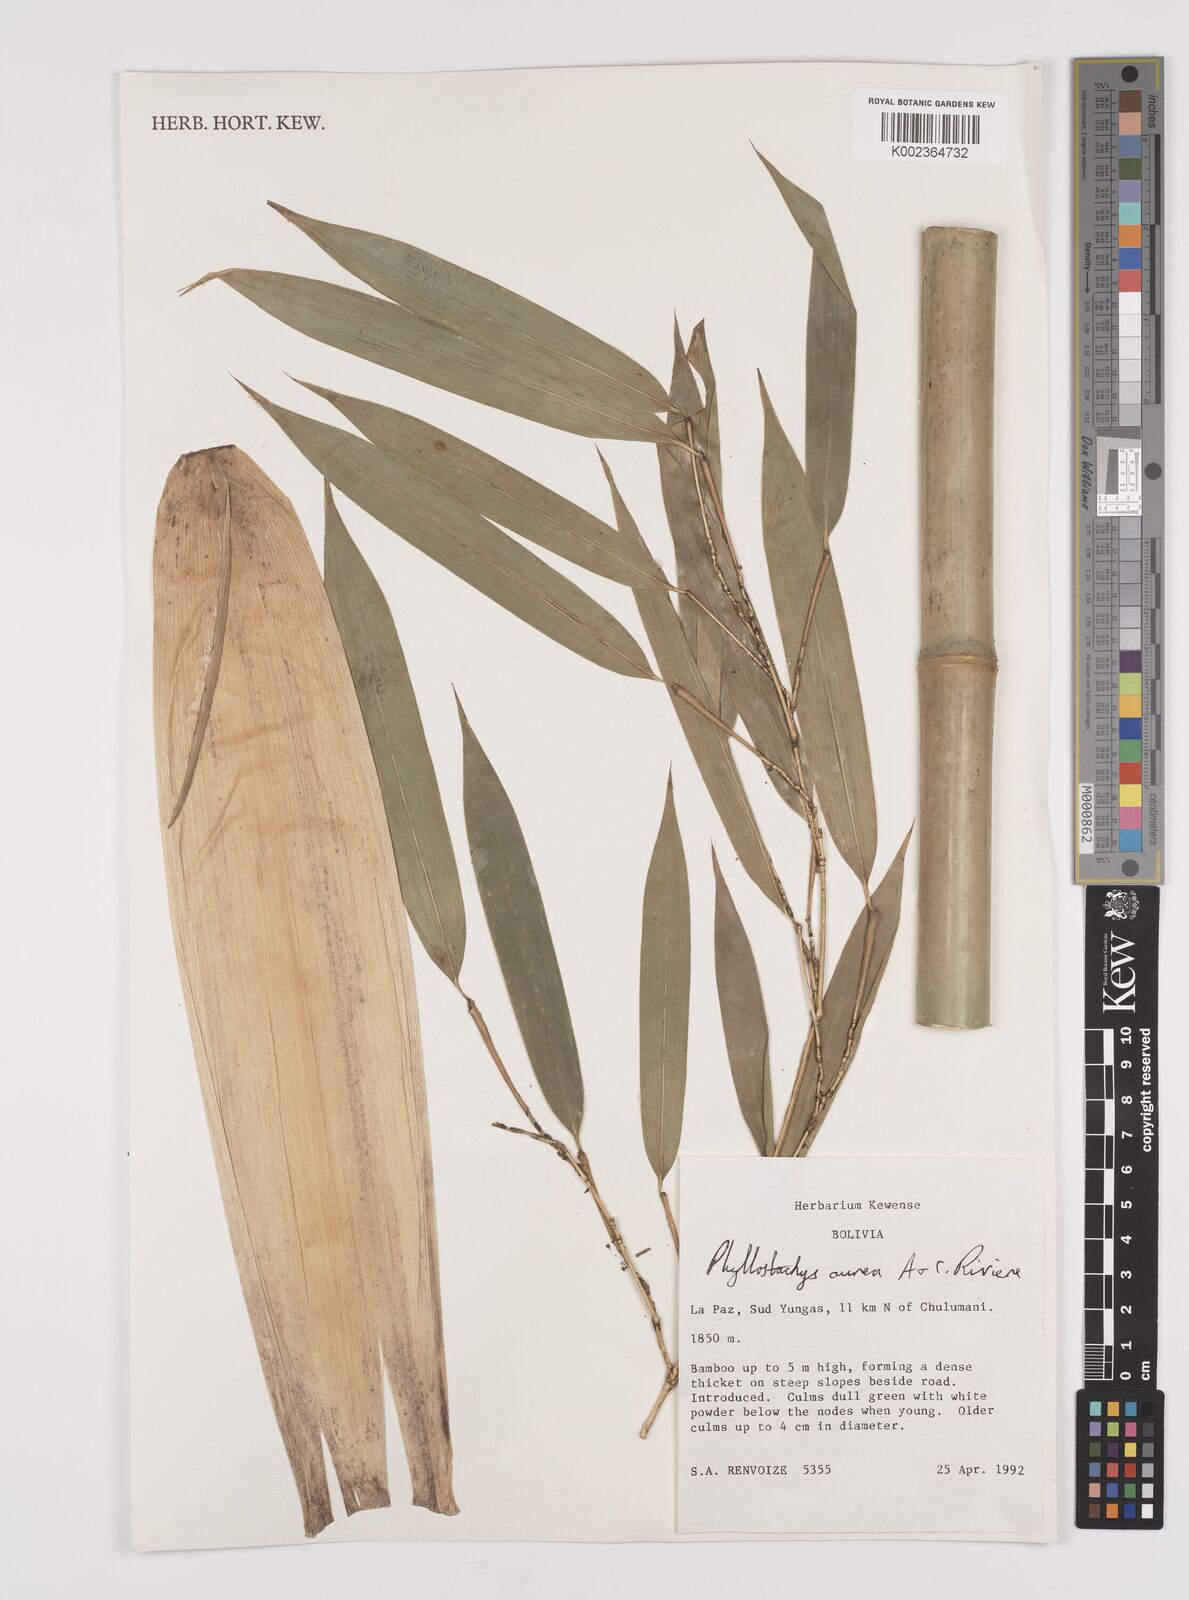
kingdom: Plantae
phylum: Tracheophyta
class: Liliopsida
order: Poales
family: Poaceae
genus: Phyllostachys
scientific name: Phyllostachys aurea
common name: Golden bamboo
